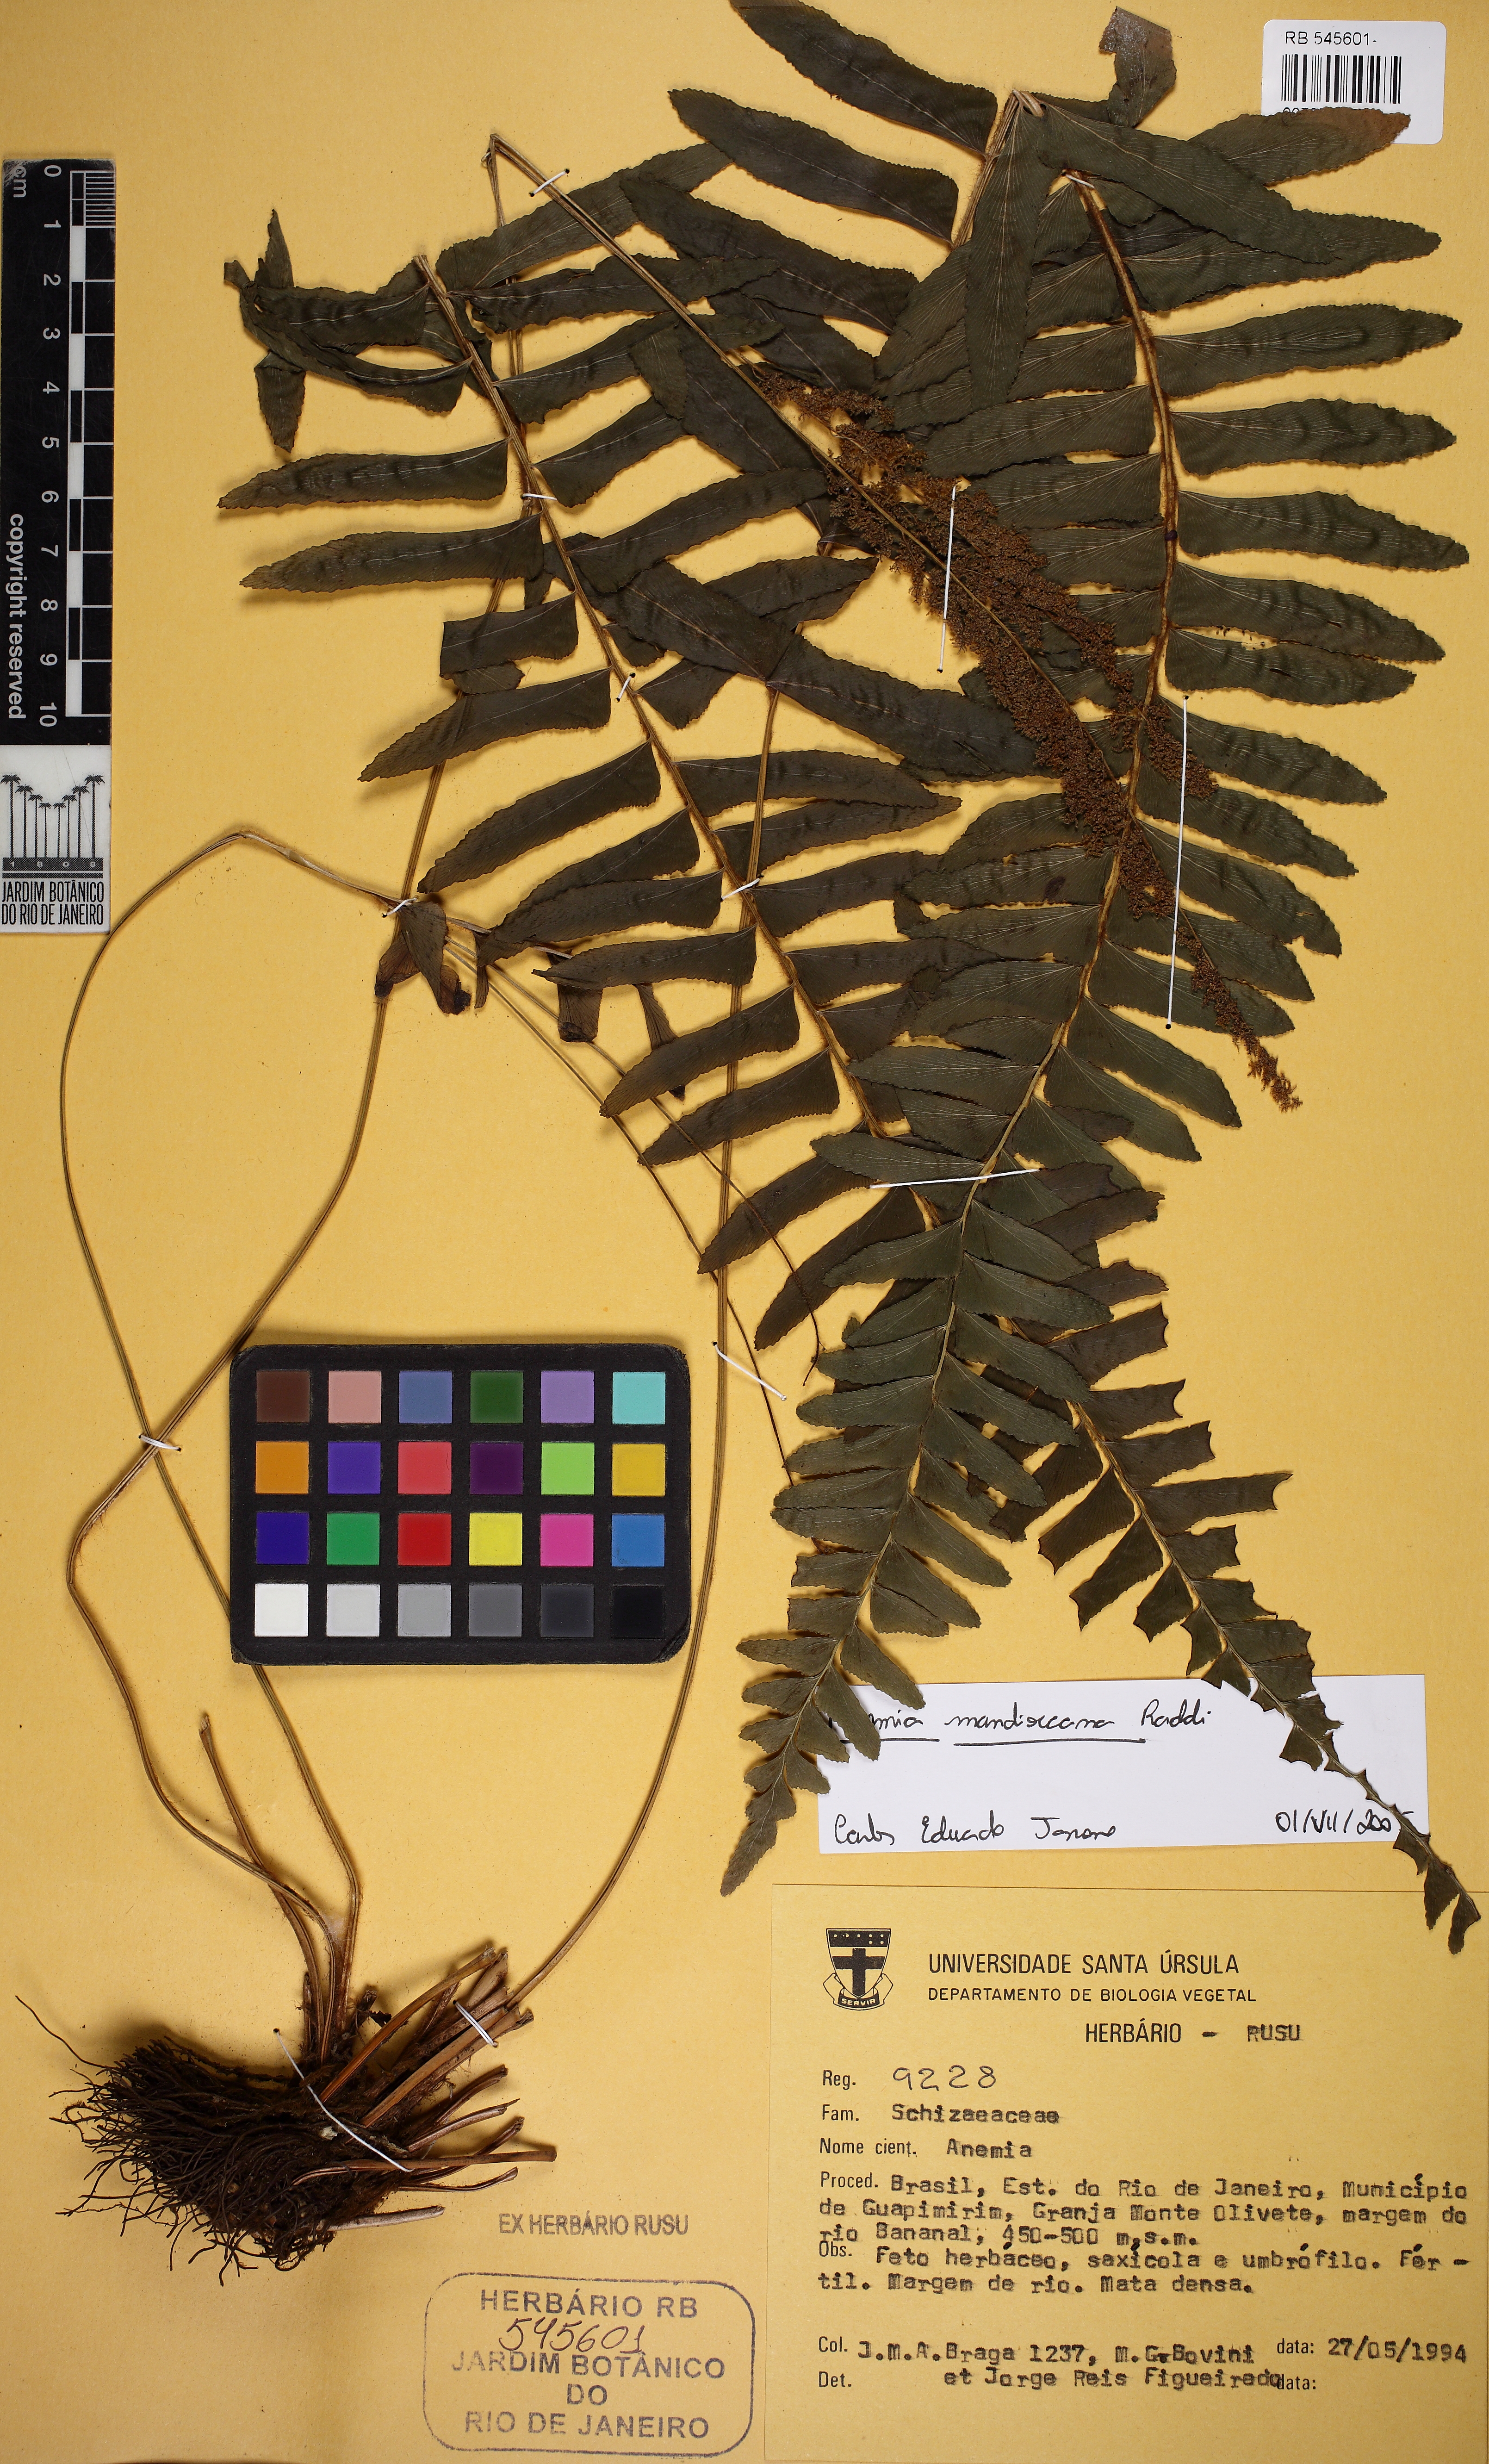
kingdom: Plantae
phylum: Tracheophyta
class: Polypodiopsida
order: Schizaeales
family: Anemiaceae
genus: Anemia
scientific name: Anemia mandiocana
